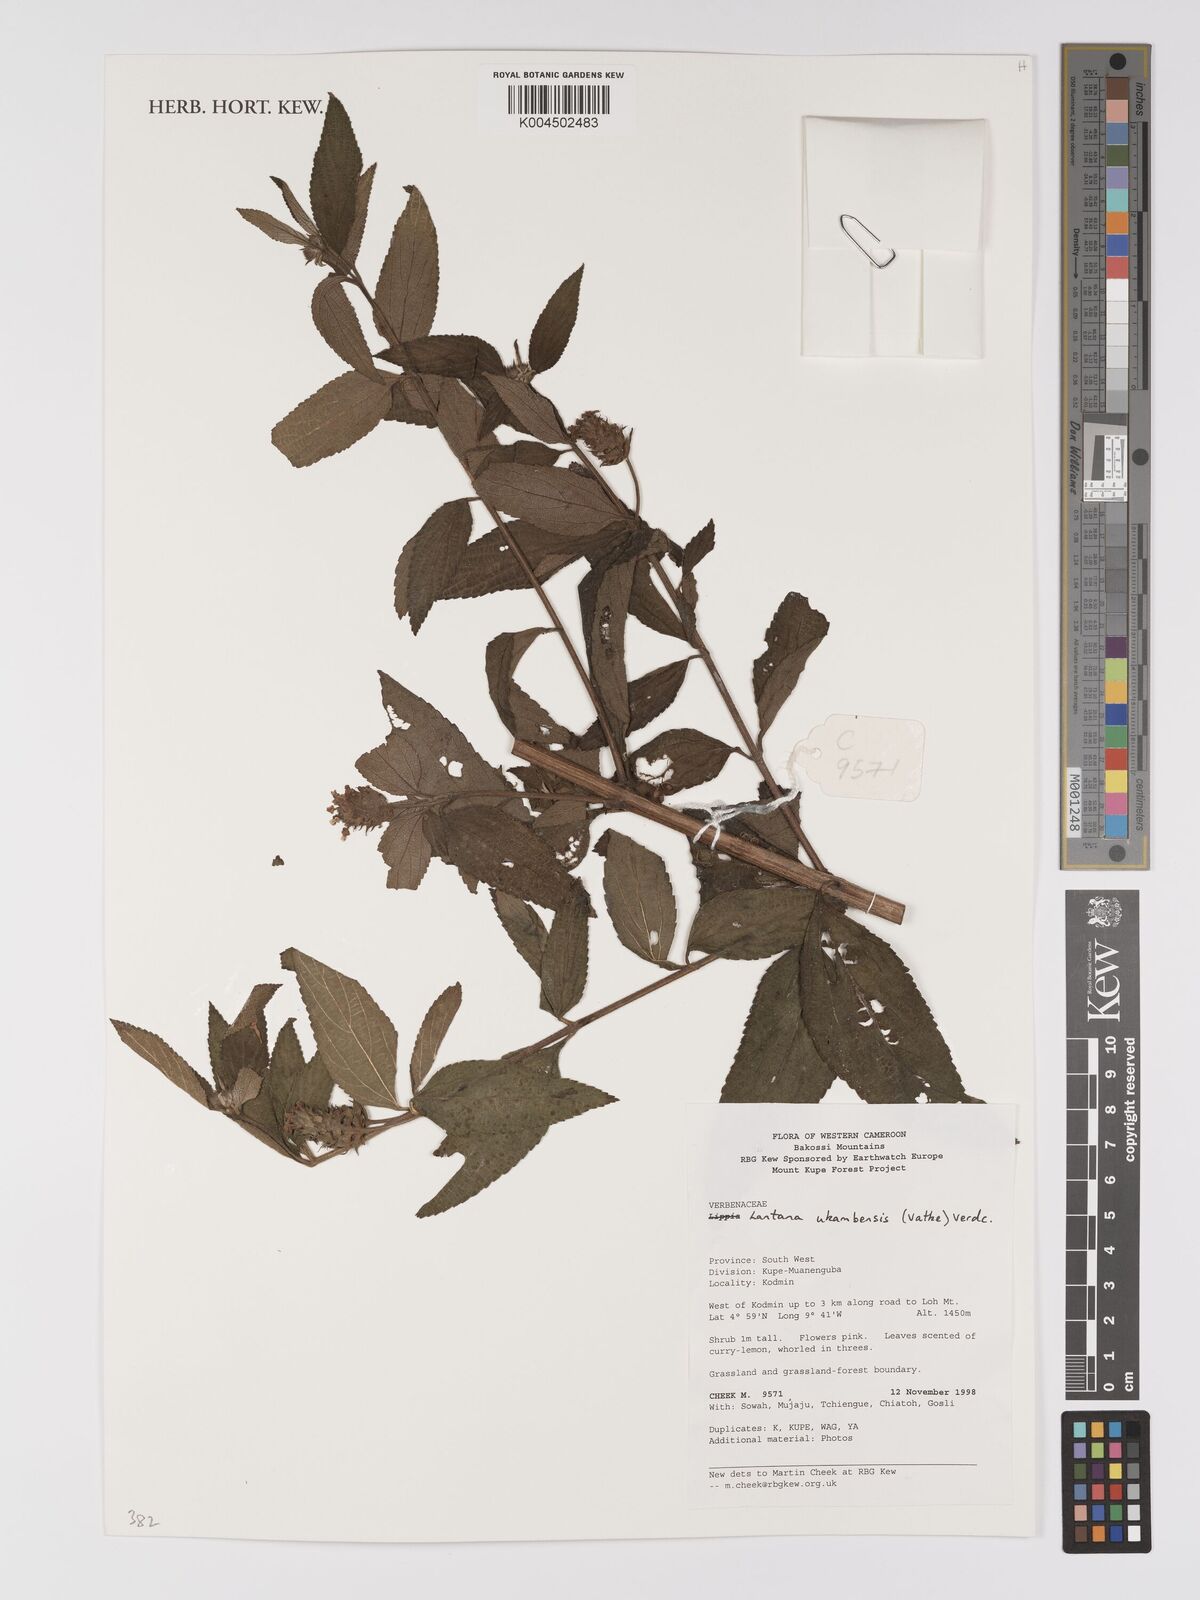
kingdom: Plantae
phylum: Tracheophyta
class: Magnoliopsida
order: Lamiales
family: Verbenaceae
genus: Lantana
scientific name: Lantana ukambensis
